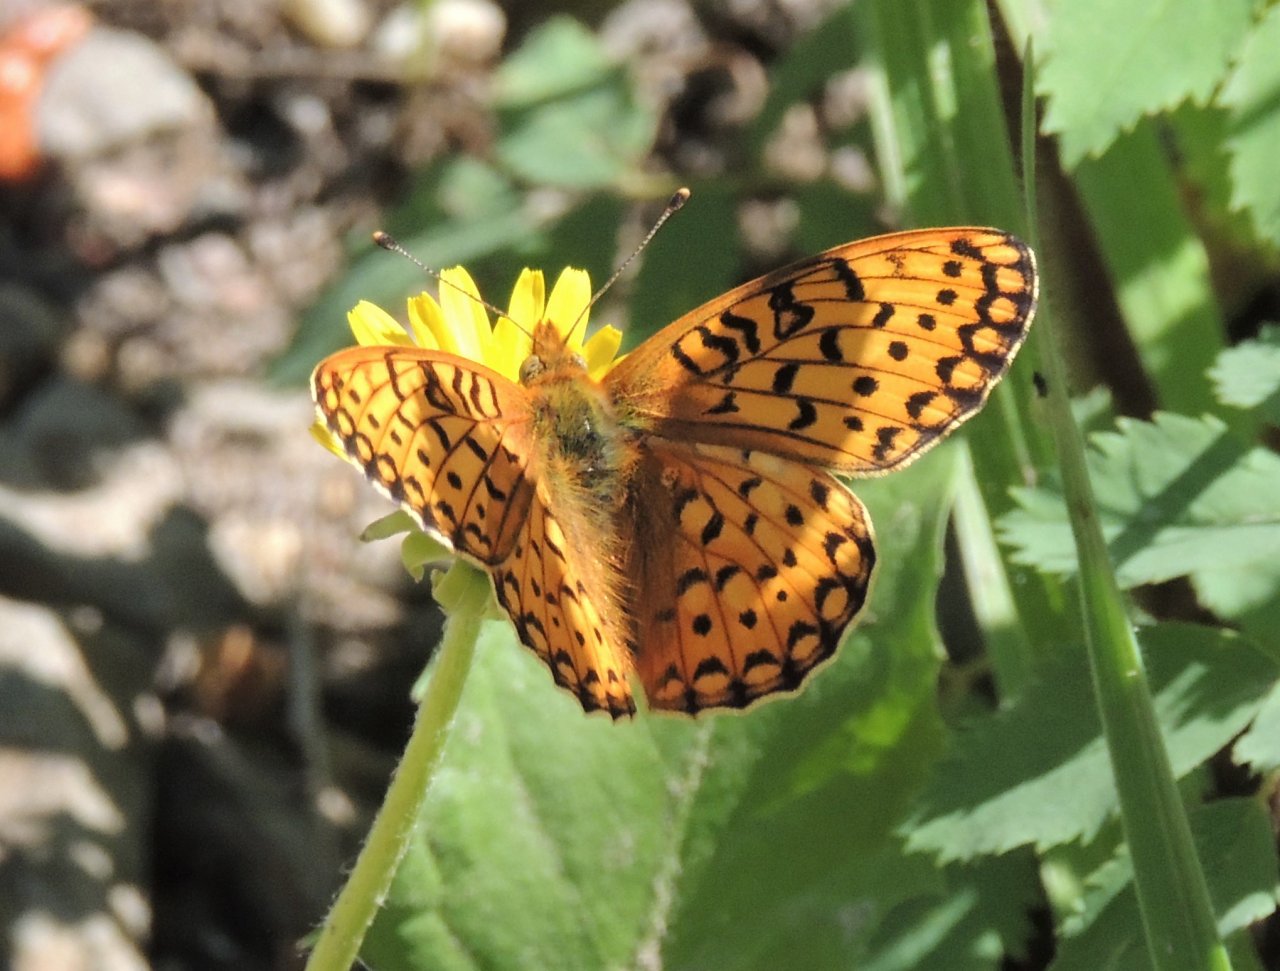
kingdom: Animalia
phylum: Arthropoda
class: Insecta
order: Lepidoptera
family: Nymphalidae
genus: Speyeria
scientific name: Speyeria mormonia
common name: Mormon Fritillary
